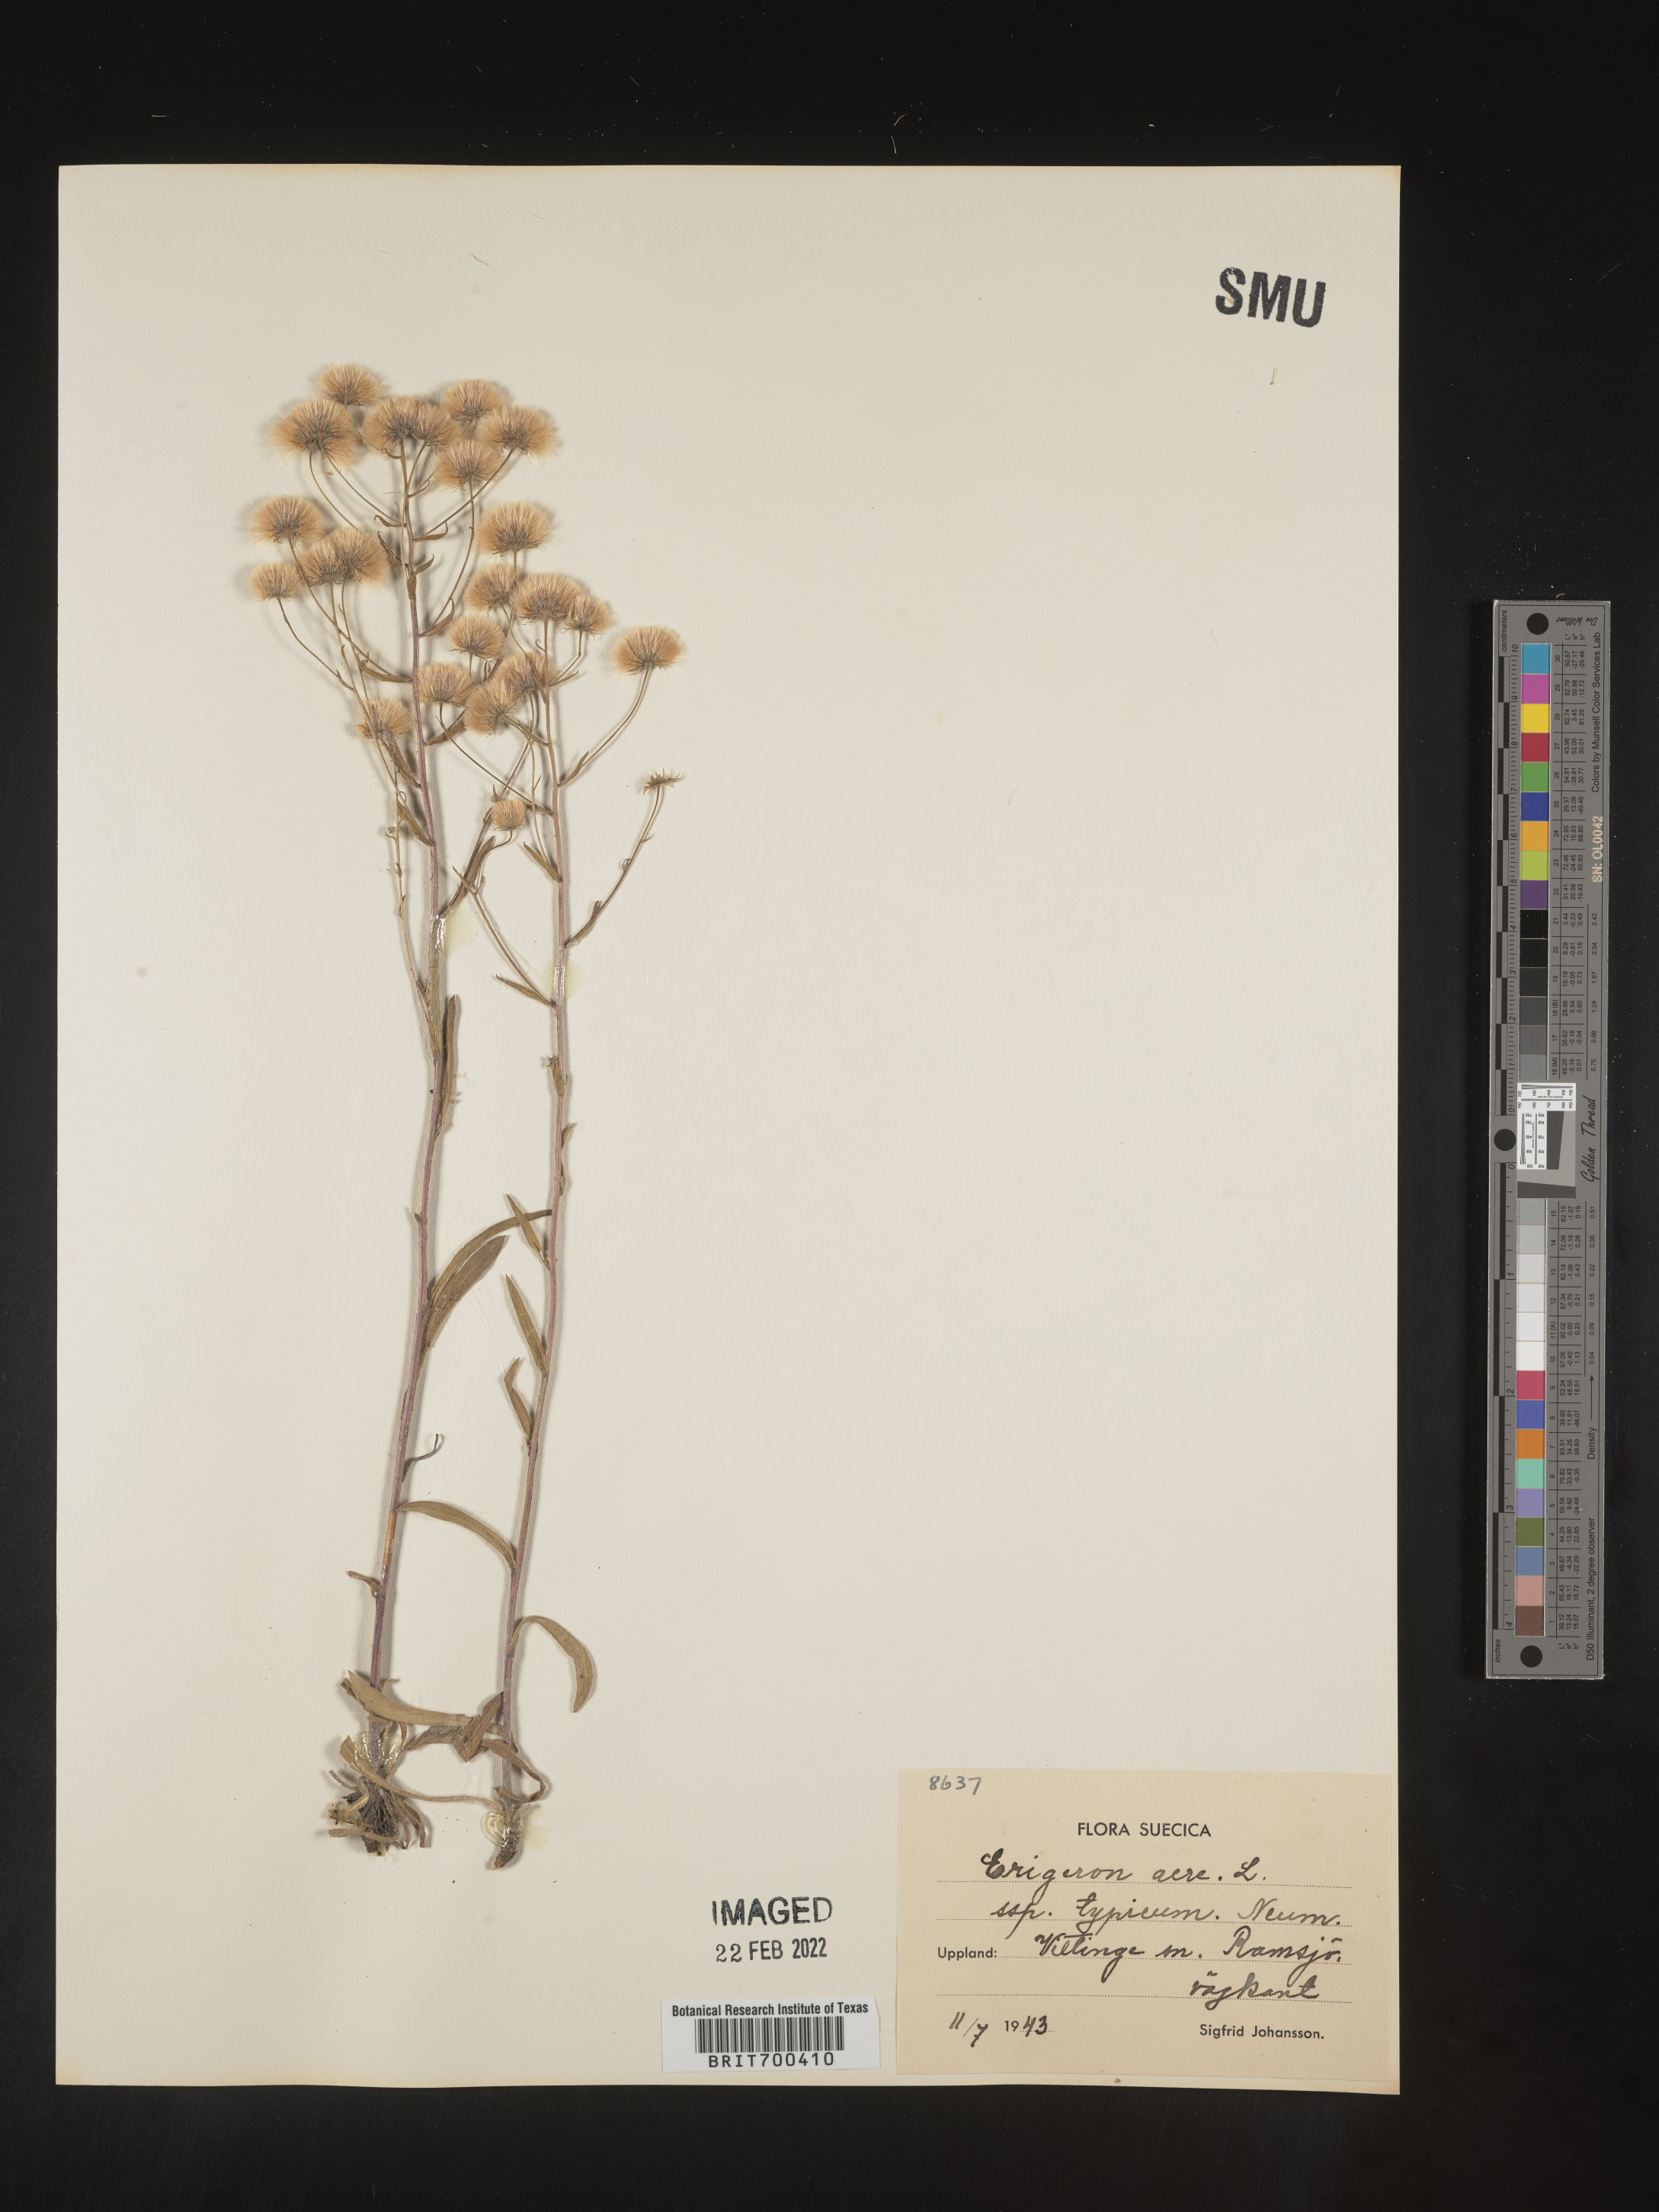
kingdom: Plantae
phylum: Tracheophyta
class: Magnoliopsida
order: Asterales
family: Asteraceae
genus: Erigeron
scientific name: Erigeron
